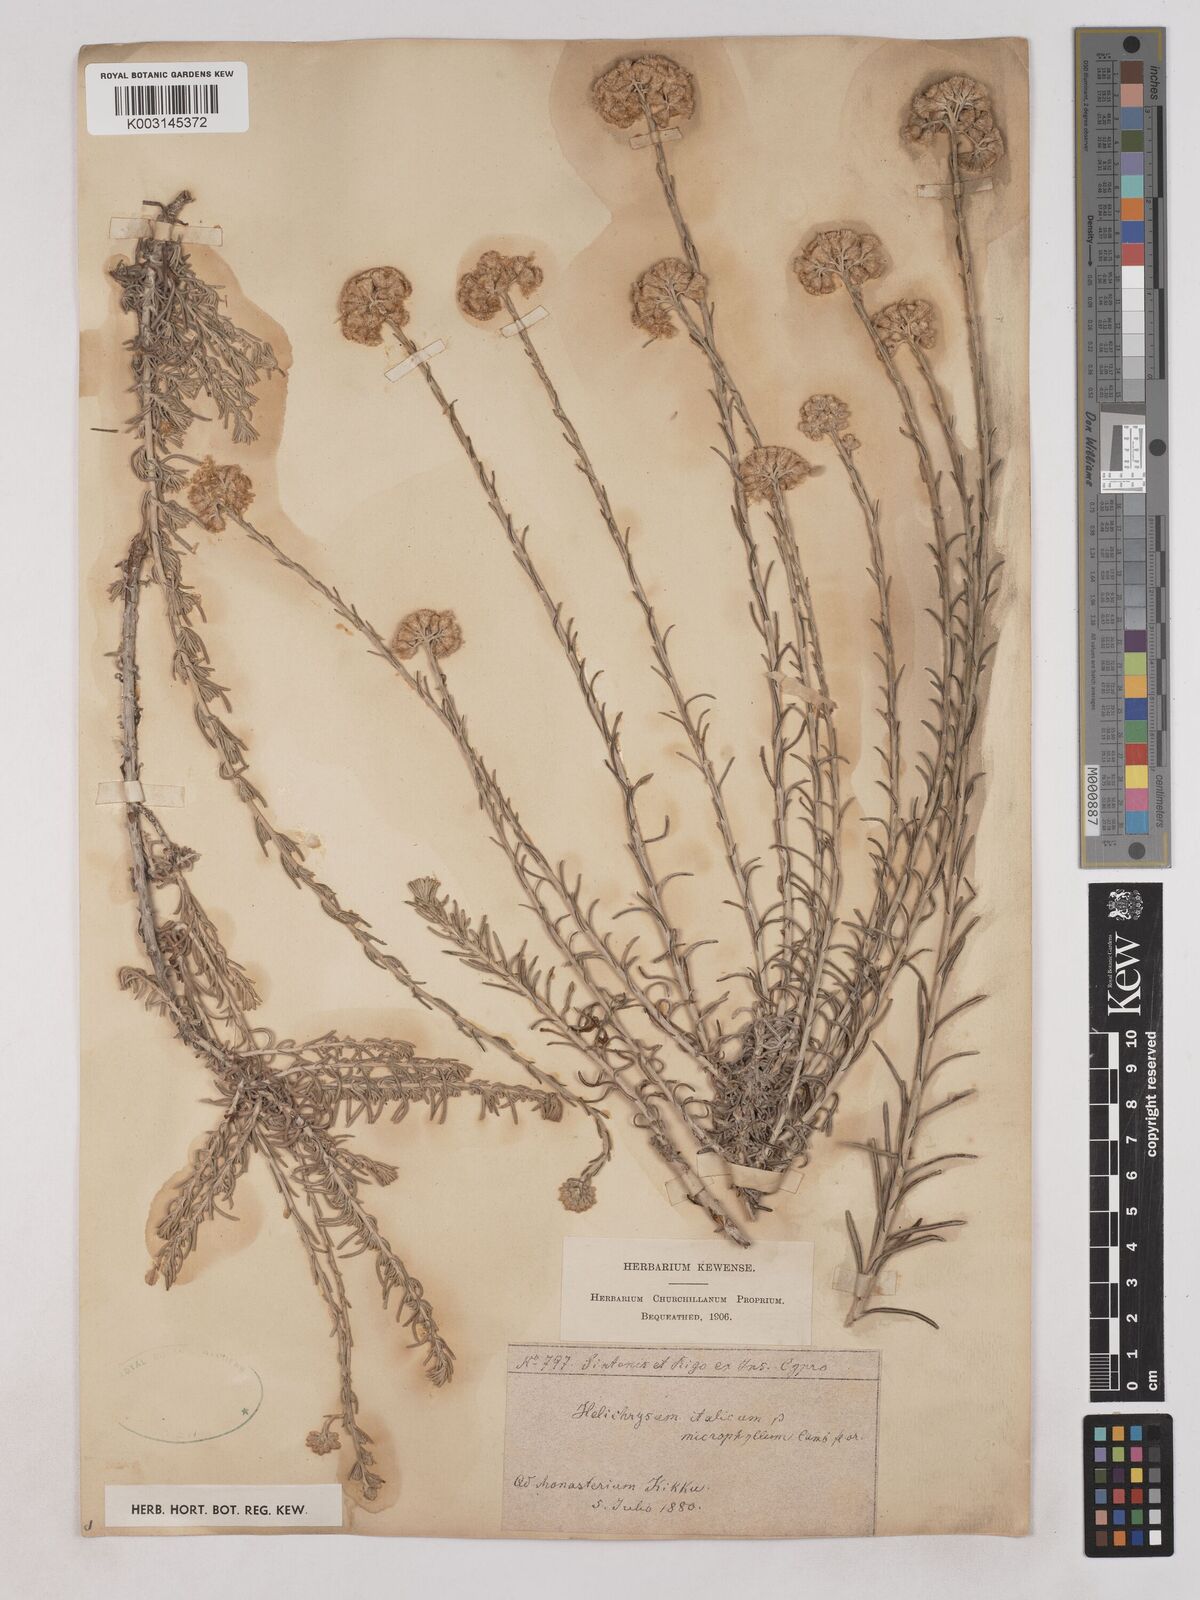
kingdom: Plantae
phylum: Tracheophyta
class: Magnoliopsida
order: Asterales
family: Asteraceae
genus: Helichrysum
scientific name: Helichrysum italicum
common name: Curryplant
